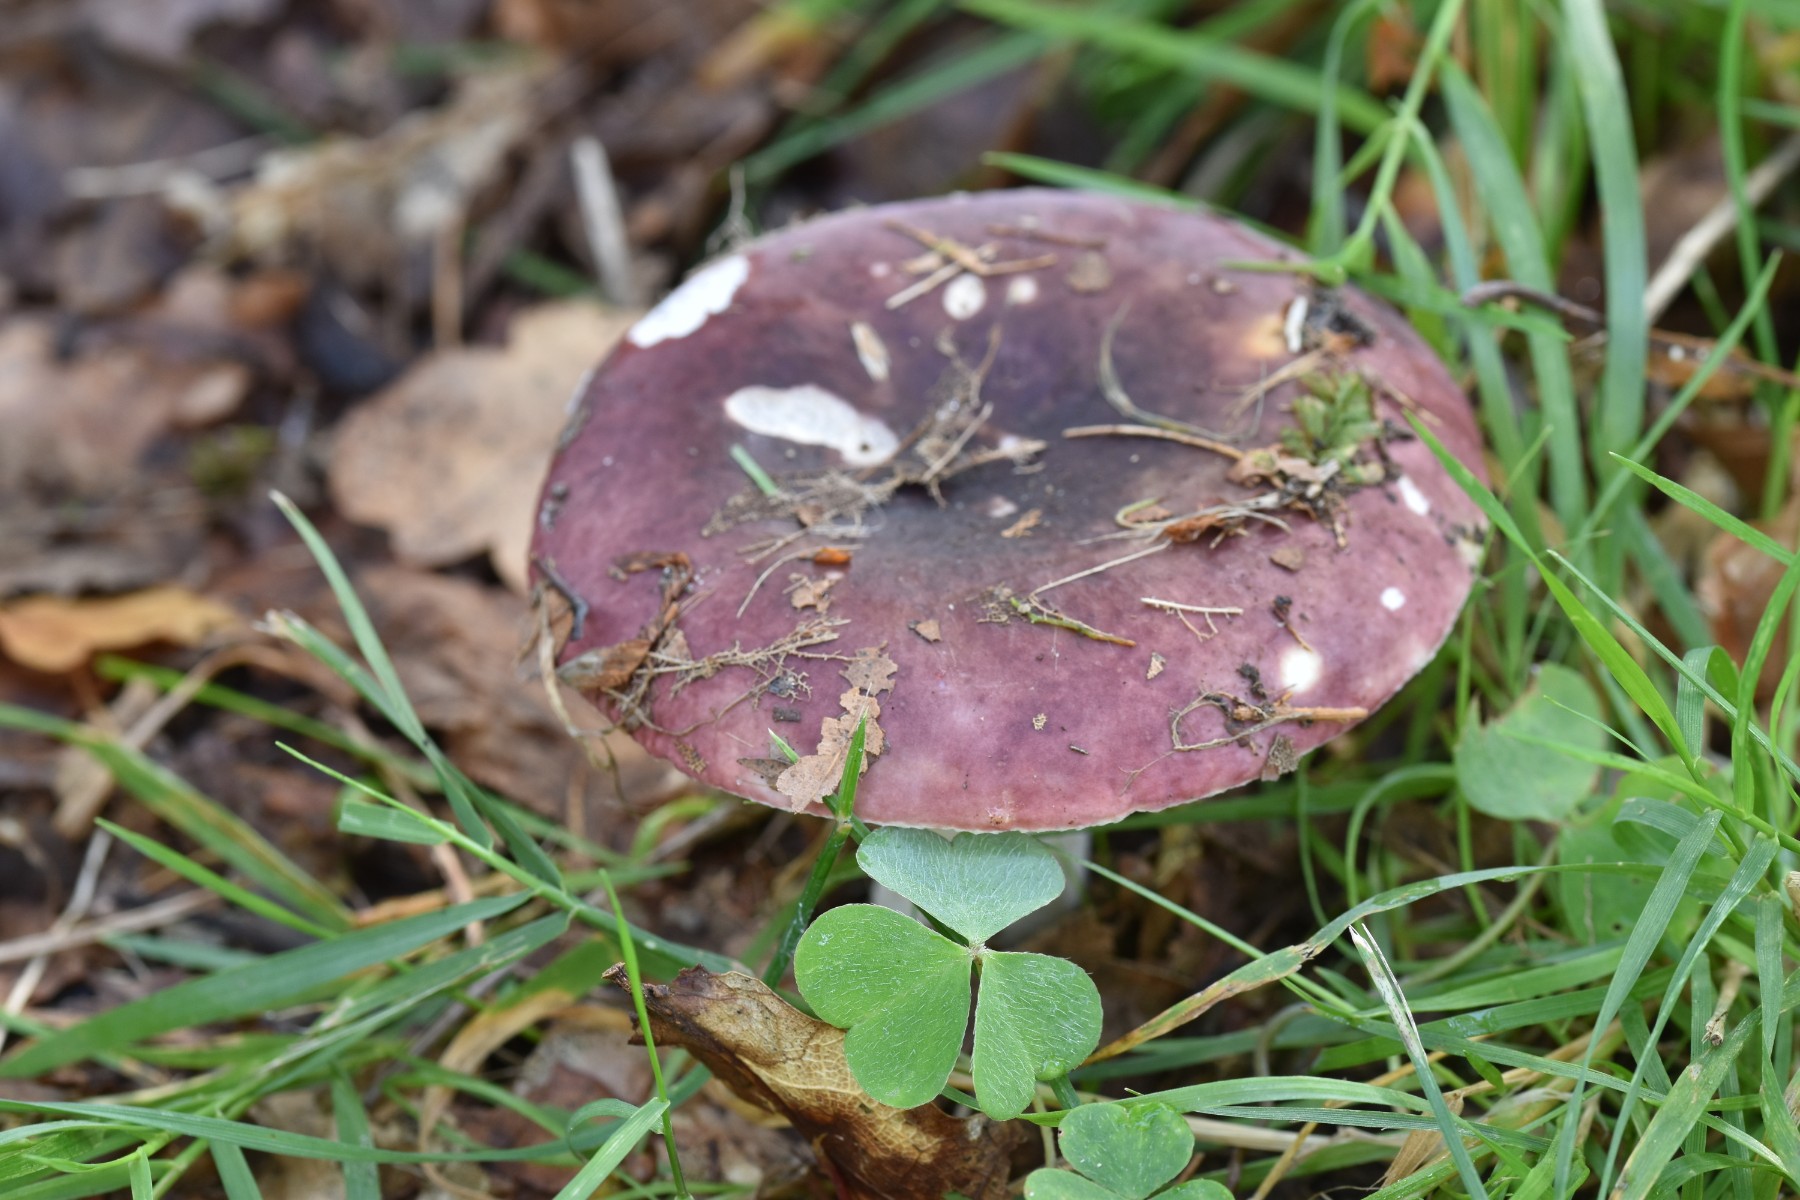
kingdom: Fungi
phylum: Basidiomycota
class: Agaricomycetes
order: Russulales
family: Russulaceae
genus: Russula
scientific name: Russula atropurpurea
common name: purpurbroget skørhat
